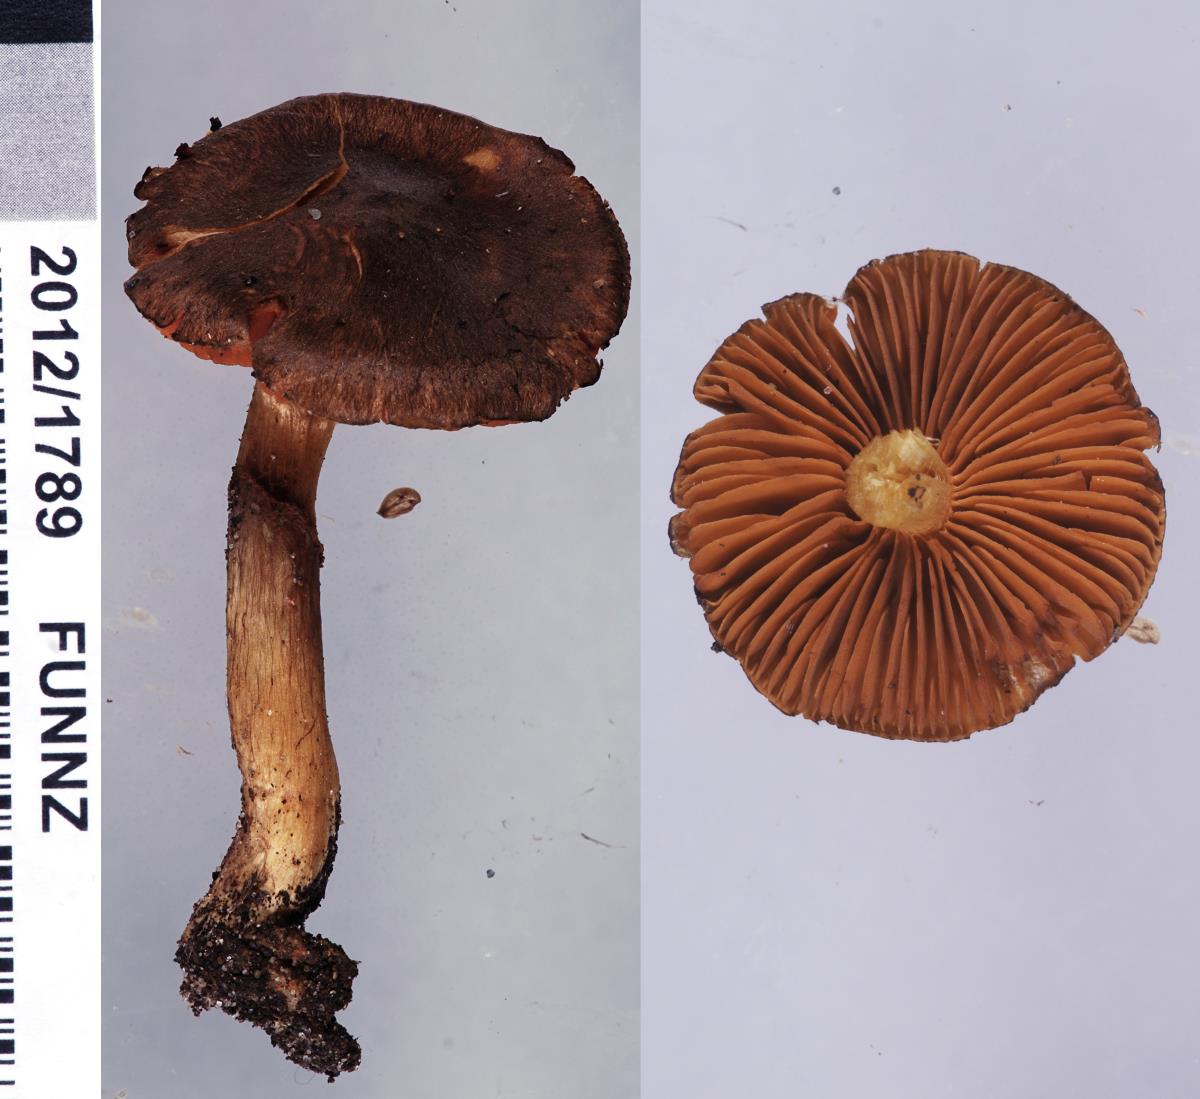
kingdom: Fungi
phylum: Basidiomycota
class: Agaricomycetes
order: Agaricales
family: Cortinariaceae
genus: Cortinarius
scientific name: Cortinarius persplendidus
